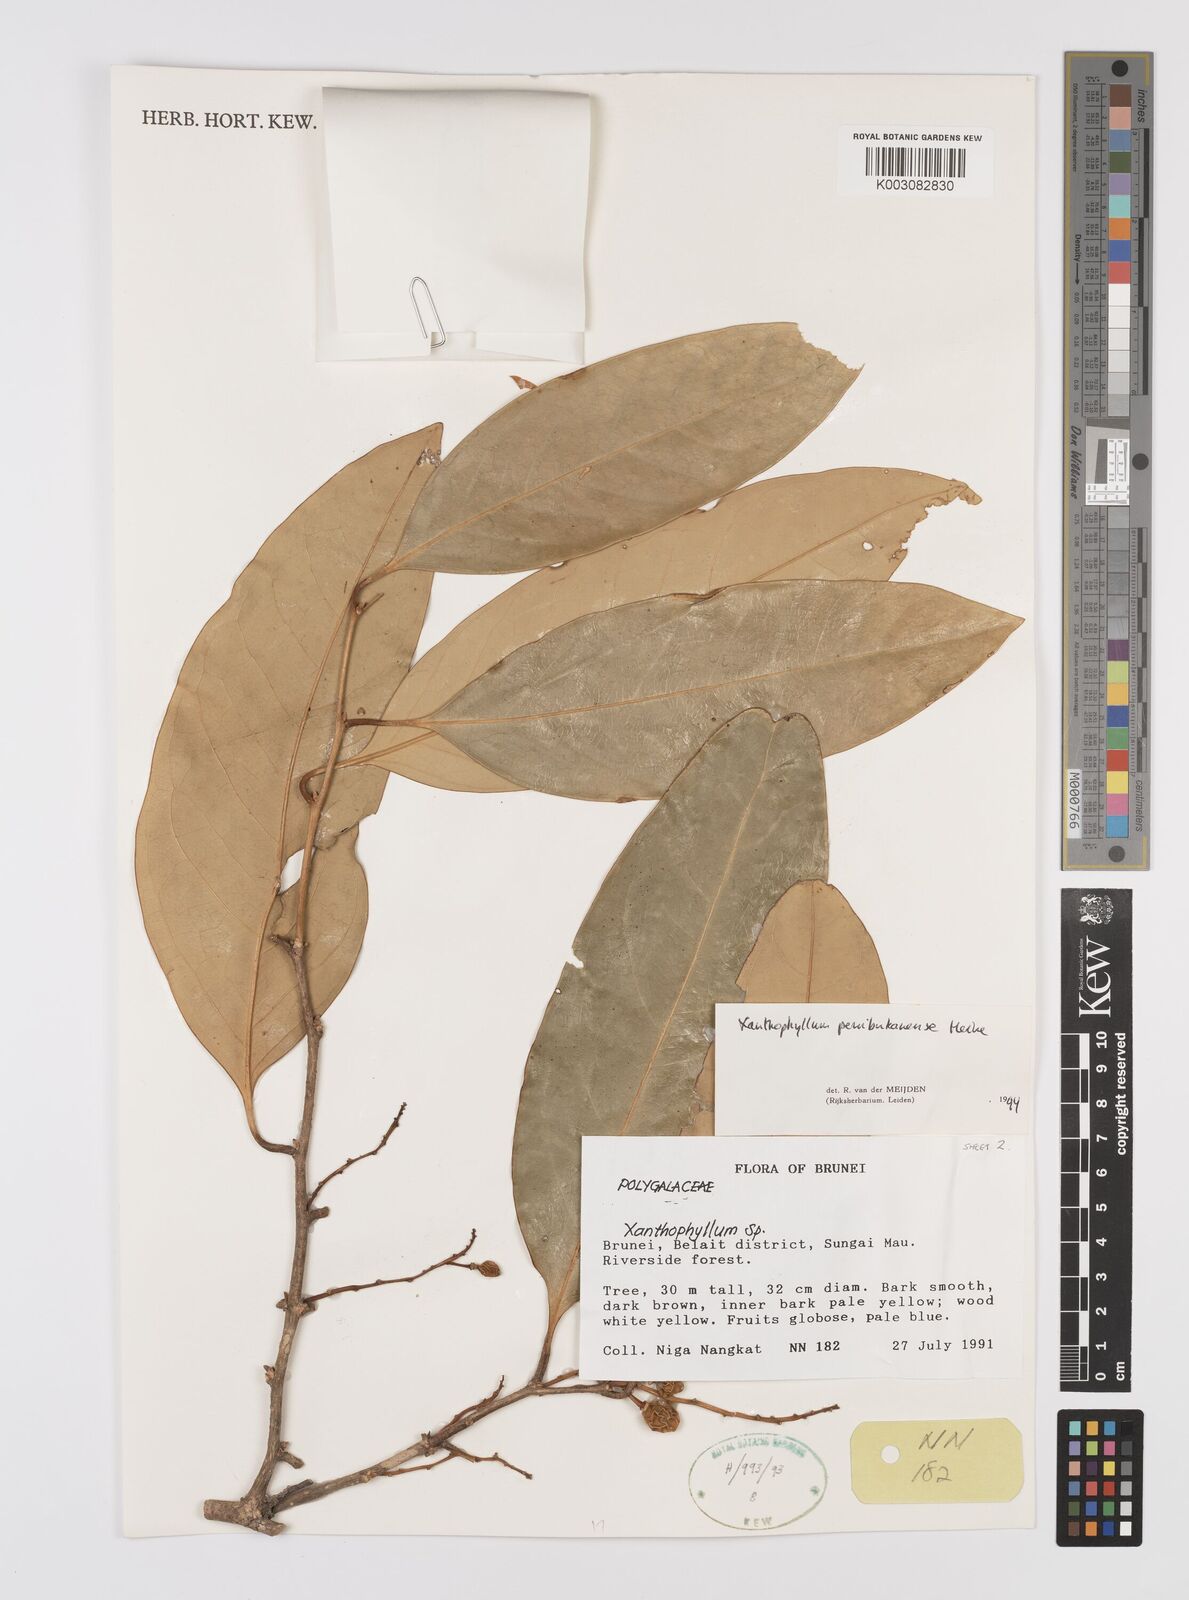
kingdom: Plantae
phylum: Tracheophyta
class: Magnoliopsida
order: Fabales
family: Polygalaceae
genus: Xanthophyllum
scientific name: Xanthophyllum penibukanense
